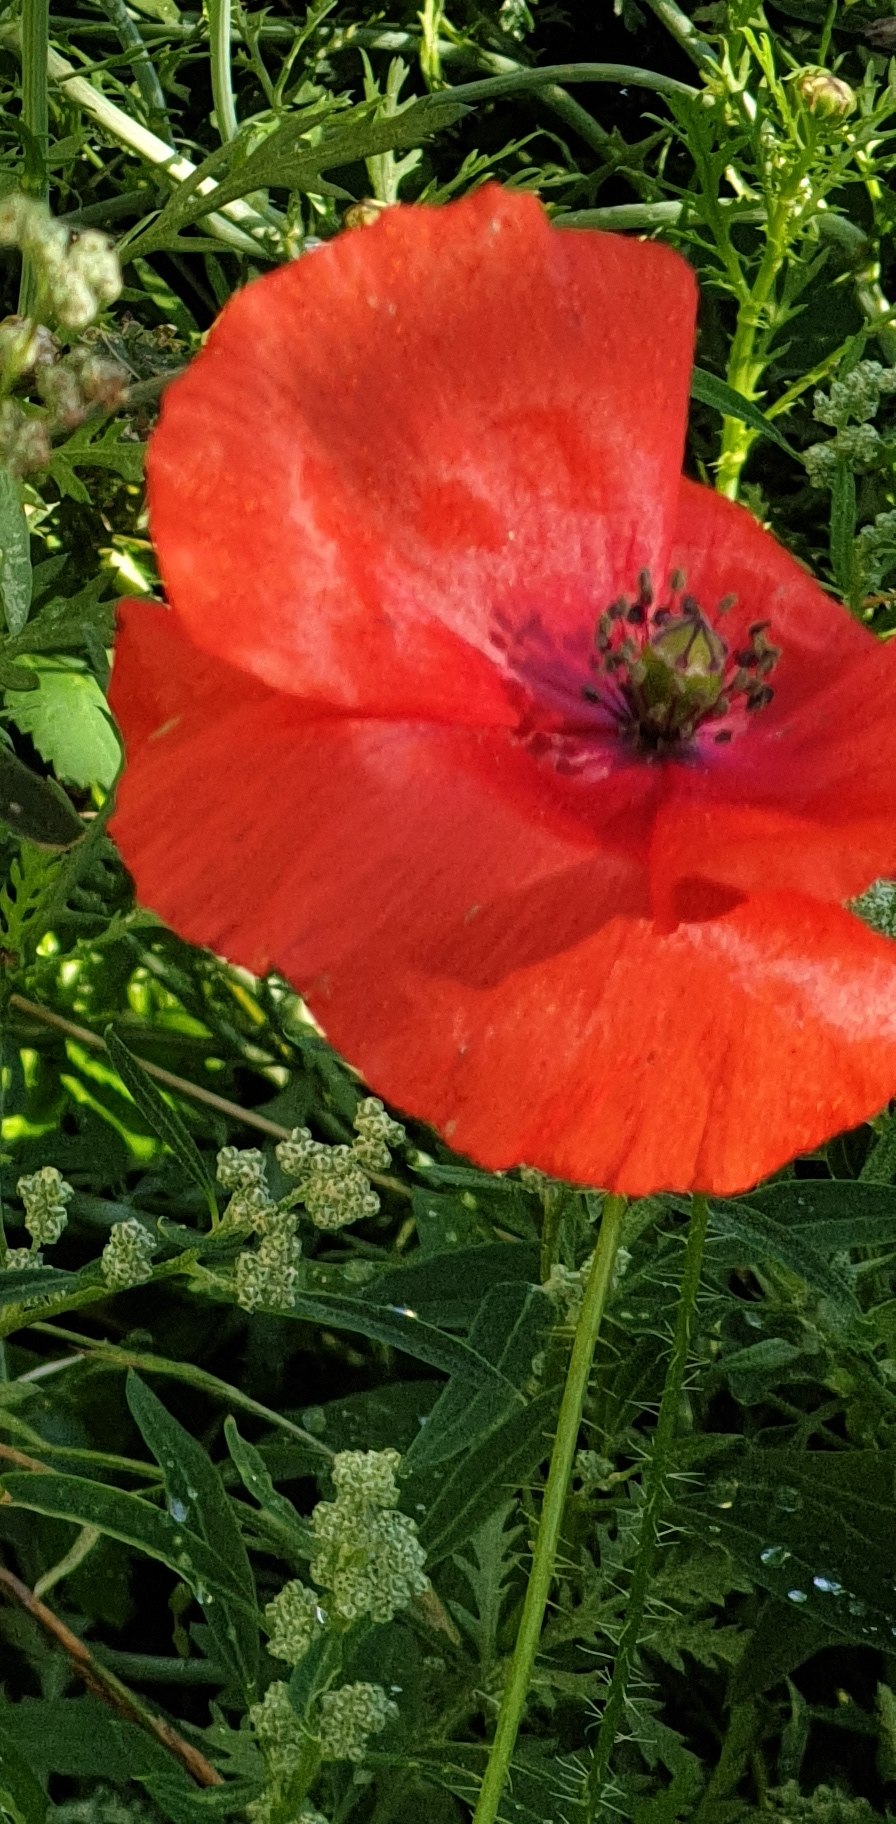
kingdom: Plantae
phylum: Tracheophyta
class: Magnoliopsida
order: Ranunculales
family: Papaveraceae
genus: Papaver
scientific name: Papaver rhoeas
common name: Korn-valmue
